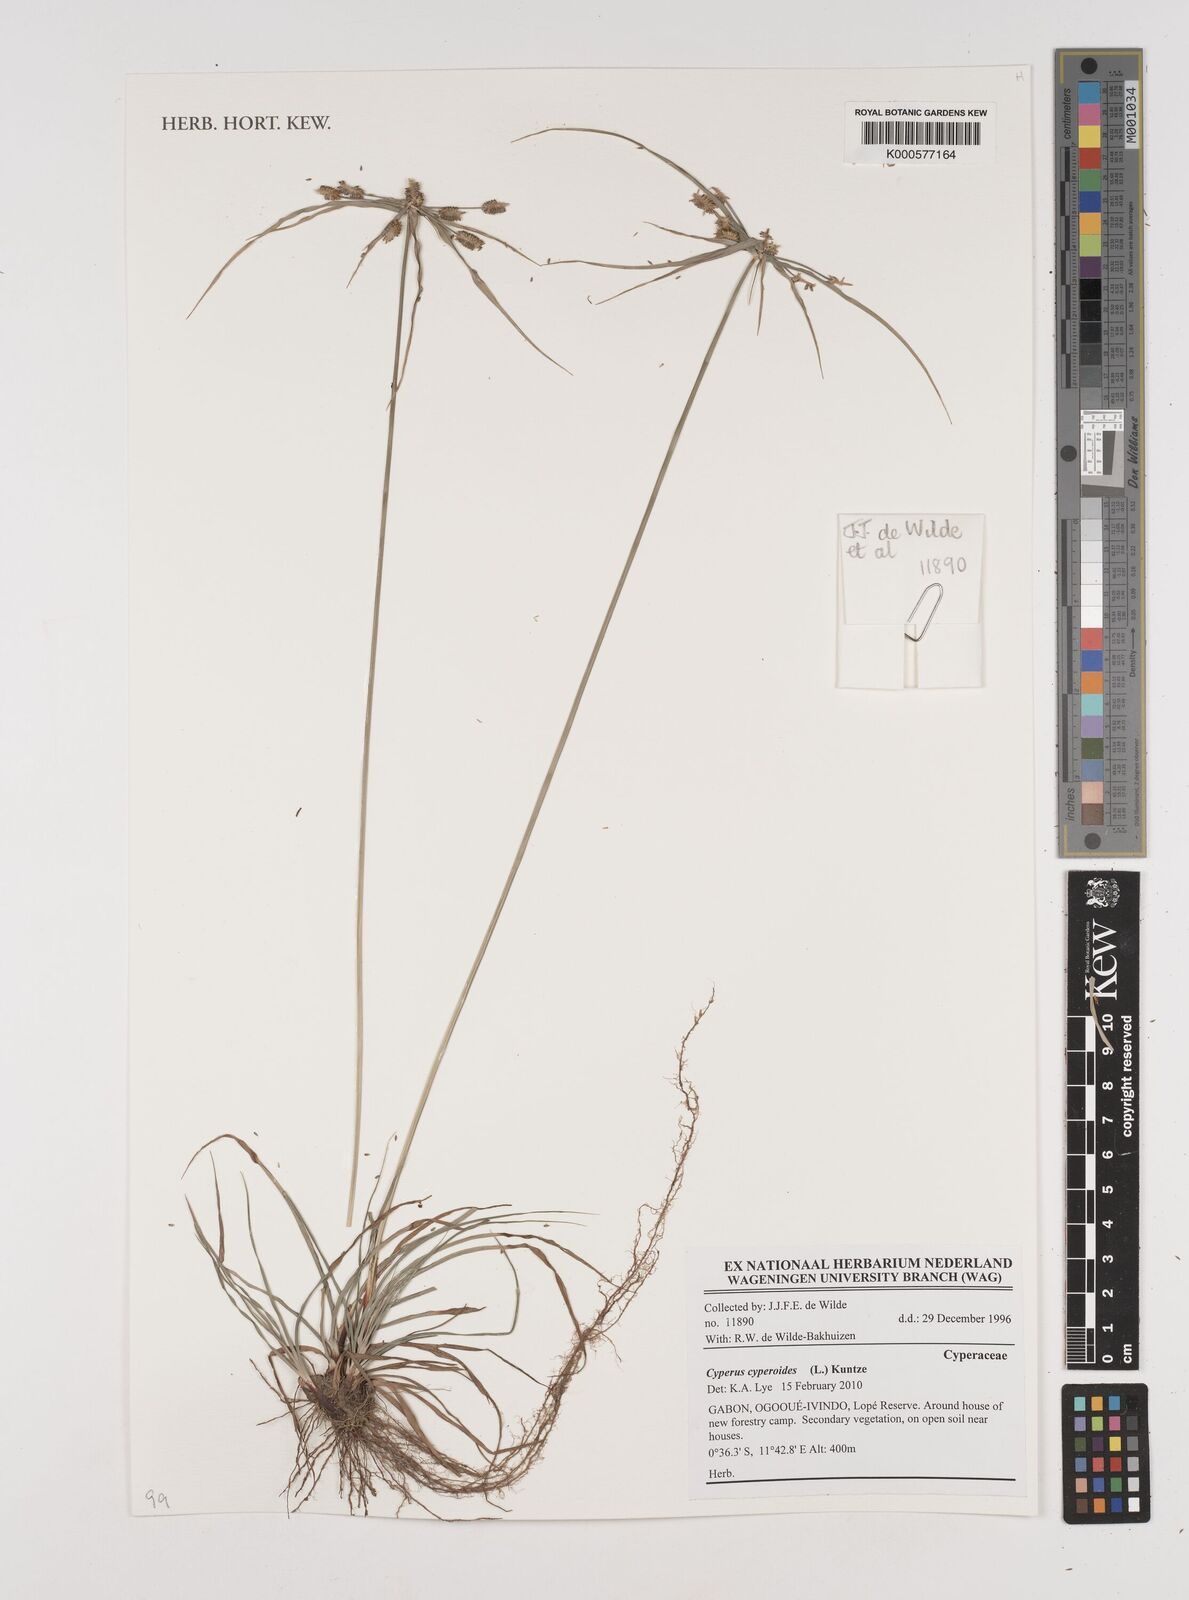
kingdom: Plantae
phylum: Tracheophyta
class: Magnoliopsida
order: Sapindales
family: Sapindaceae
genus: Allophylus
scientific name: Allophylus
